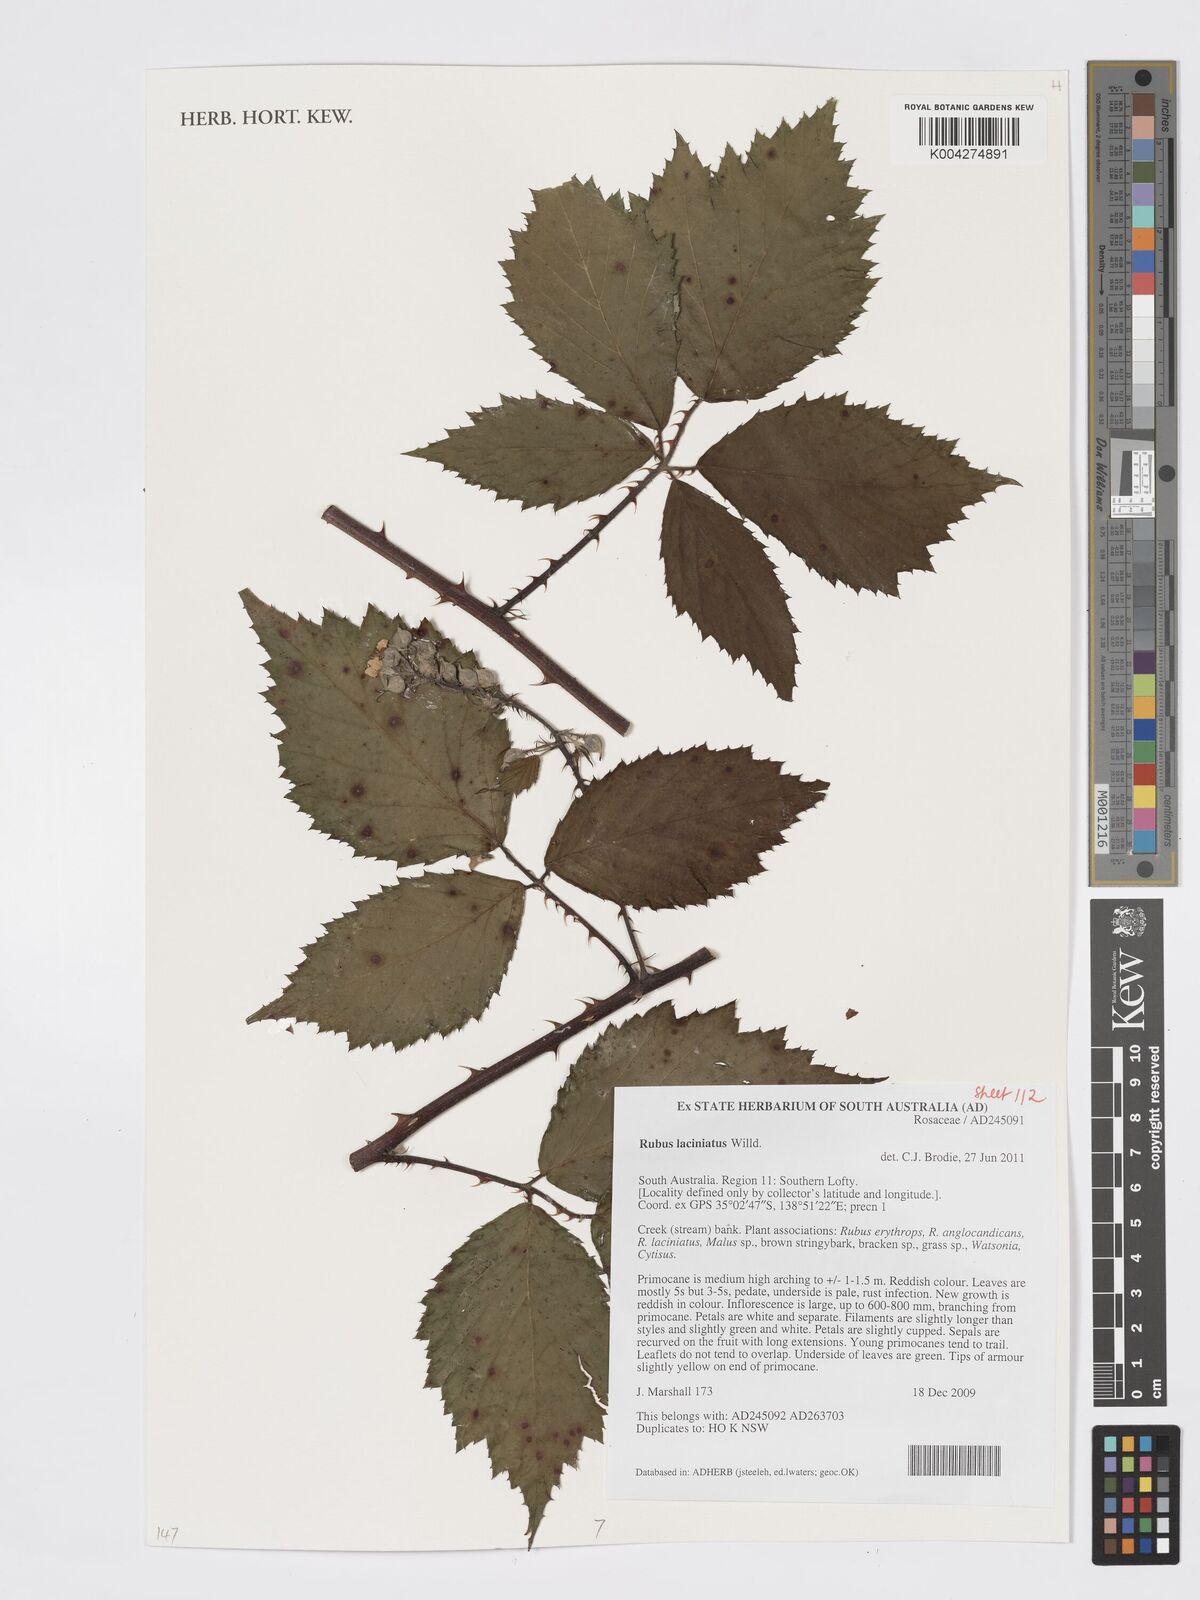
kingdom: Plantae
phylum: Tracheophyta
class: Magnoliopsida
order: Rosales
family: Rosaceae
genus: Rubus
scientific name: Rubus laciniatus
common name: Evergreen blackberry
